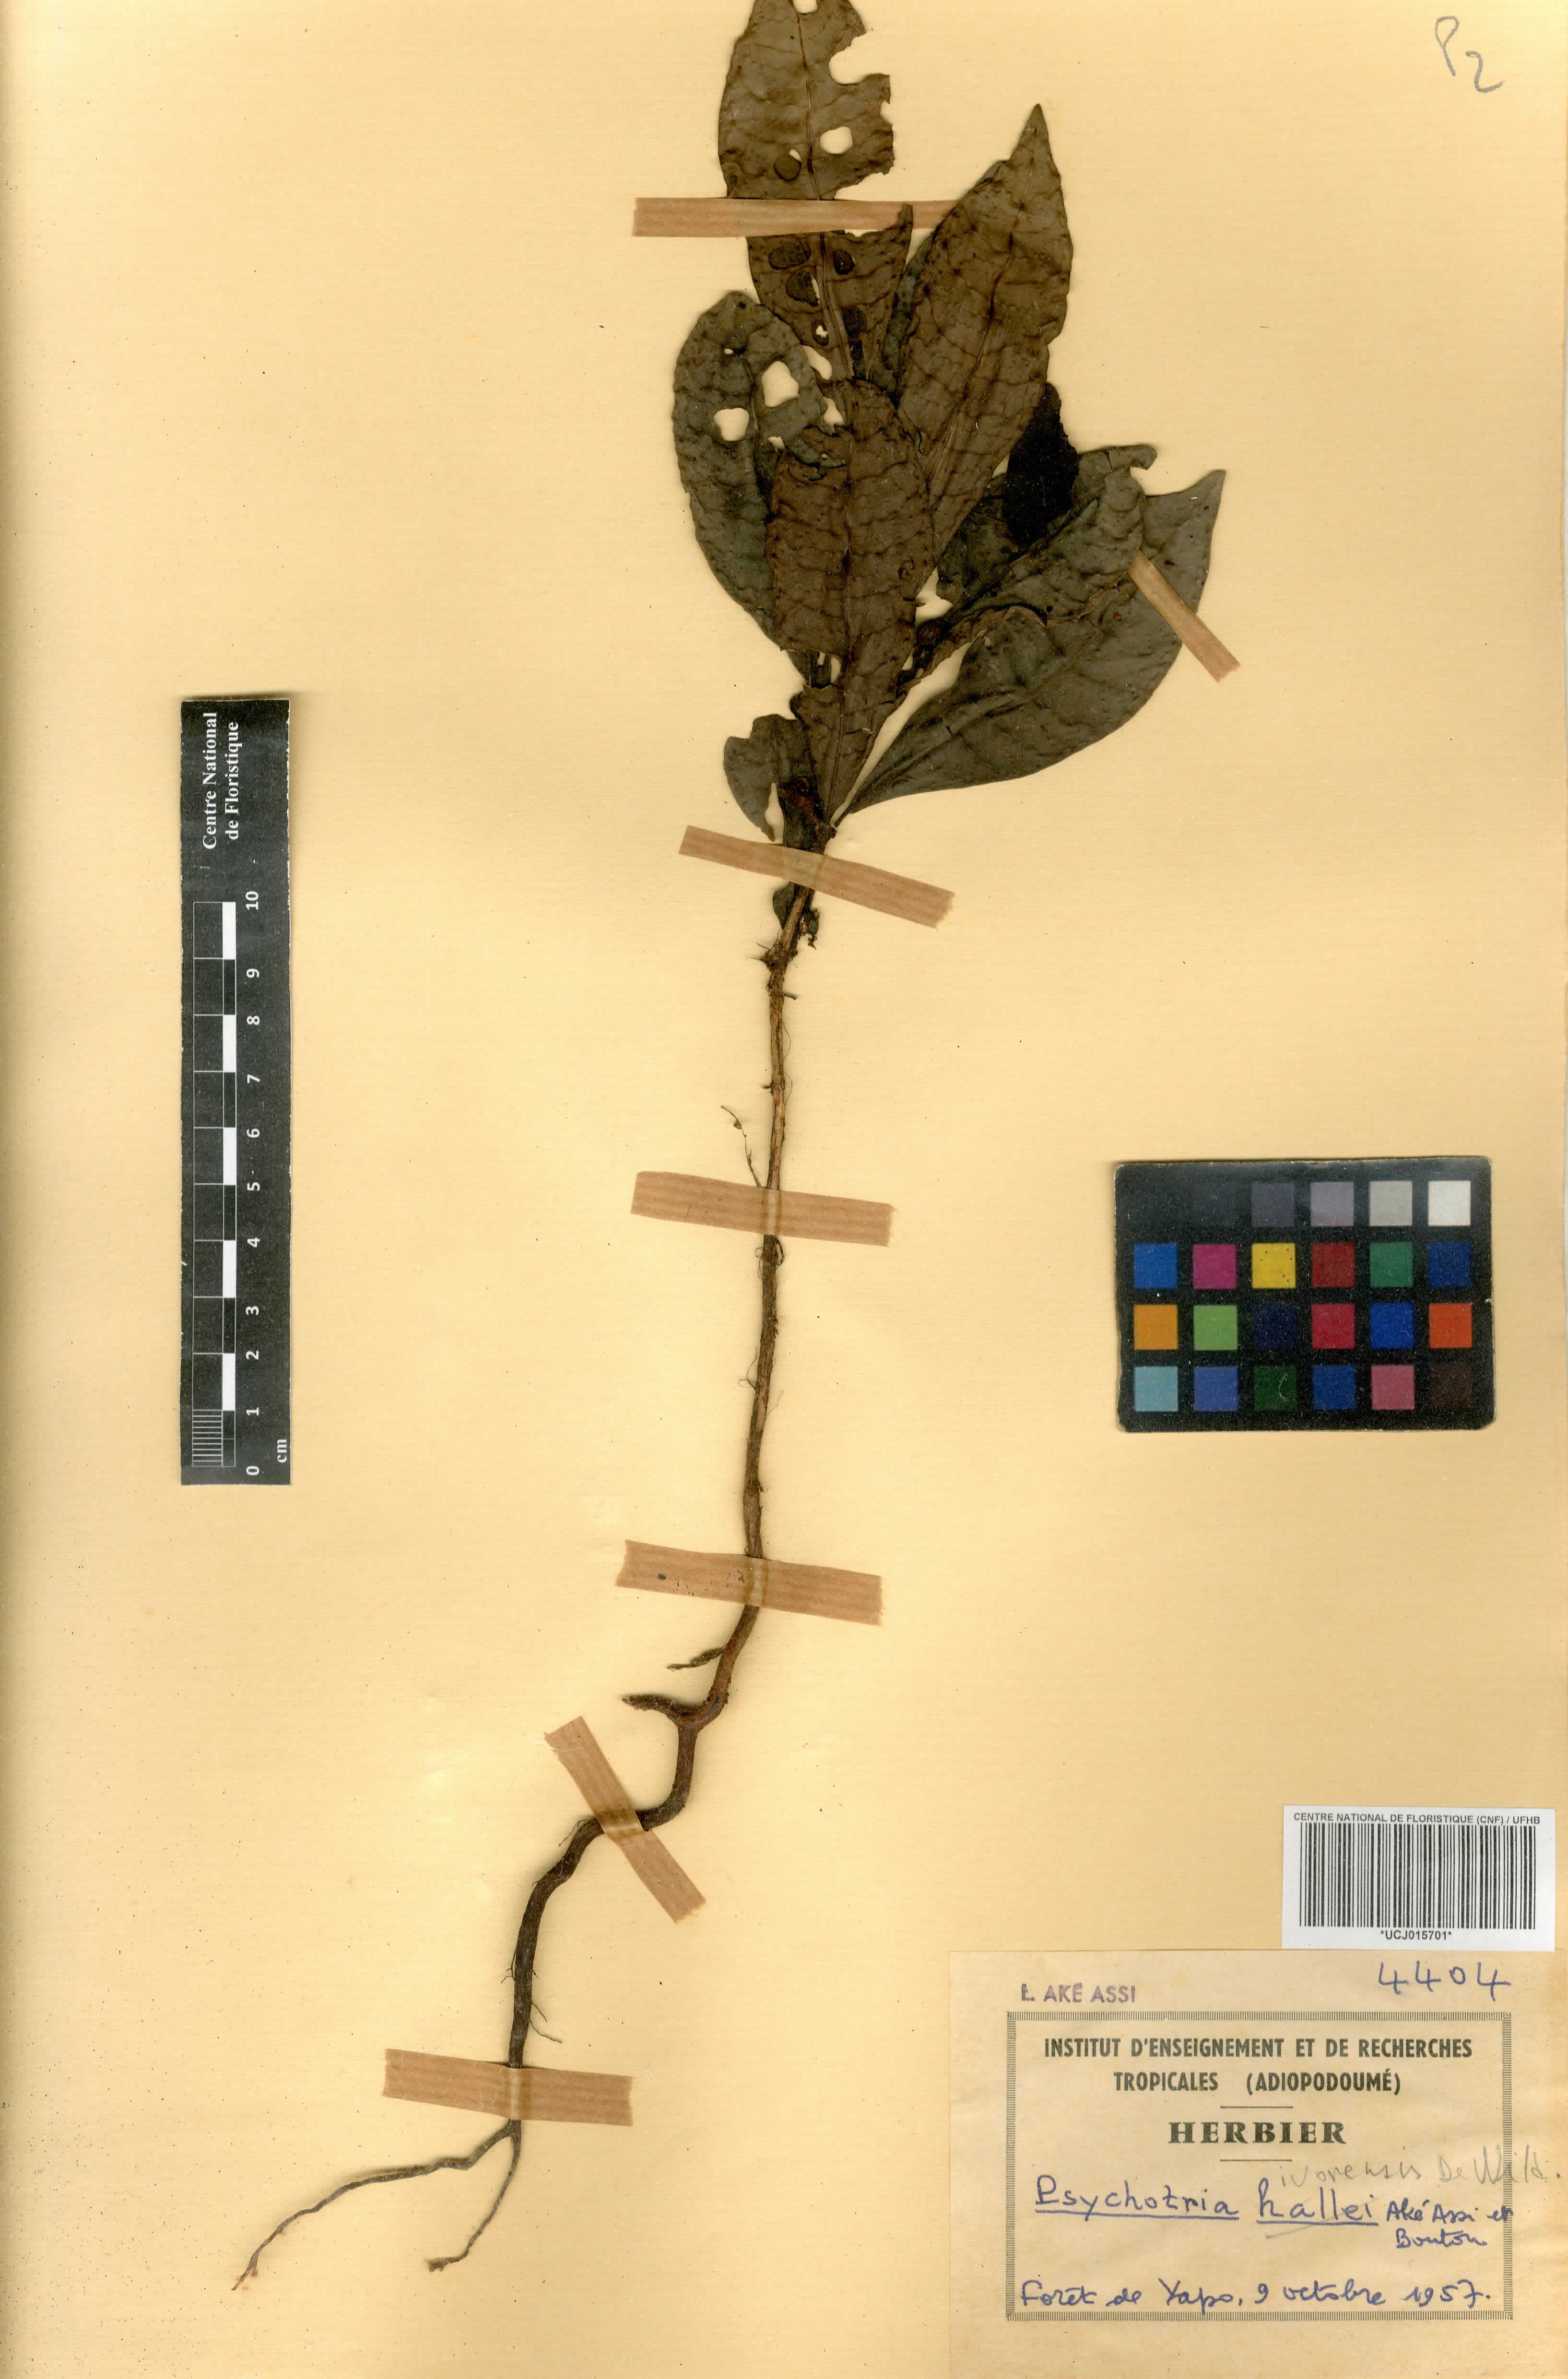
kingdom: Plantae
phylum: Tracheophyta
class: Magnoliopsida
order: Gentianales
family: Rubiaceae
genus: Psychotria
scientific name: Psychotria adafoana
